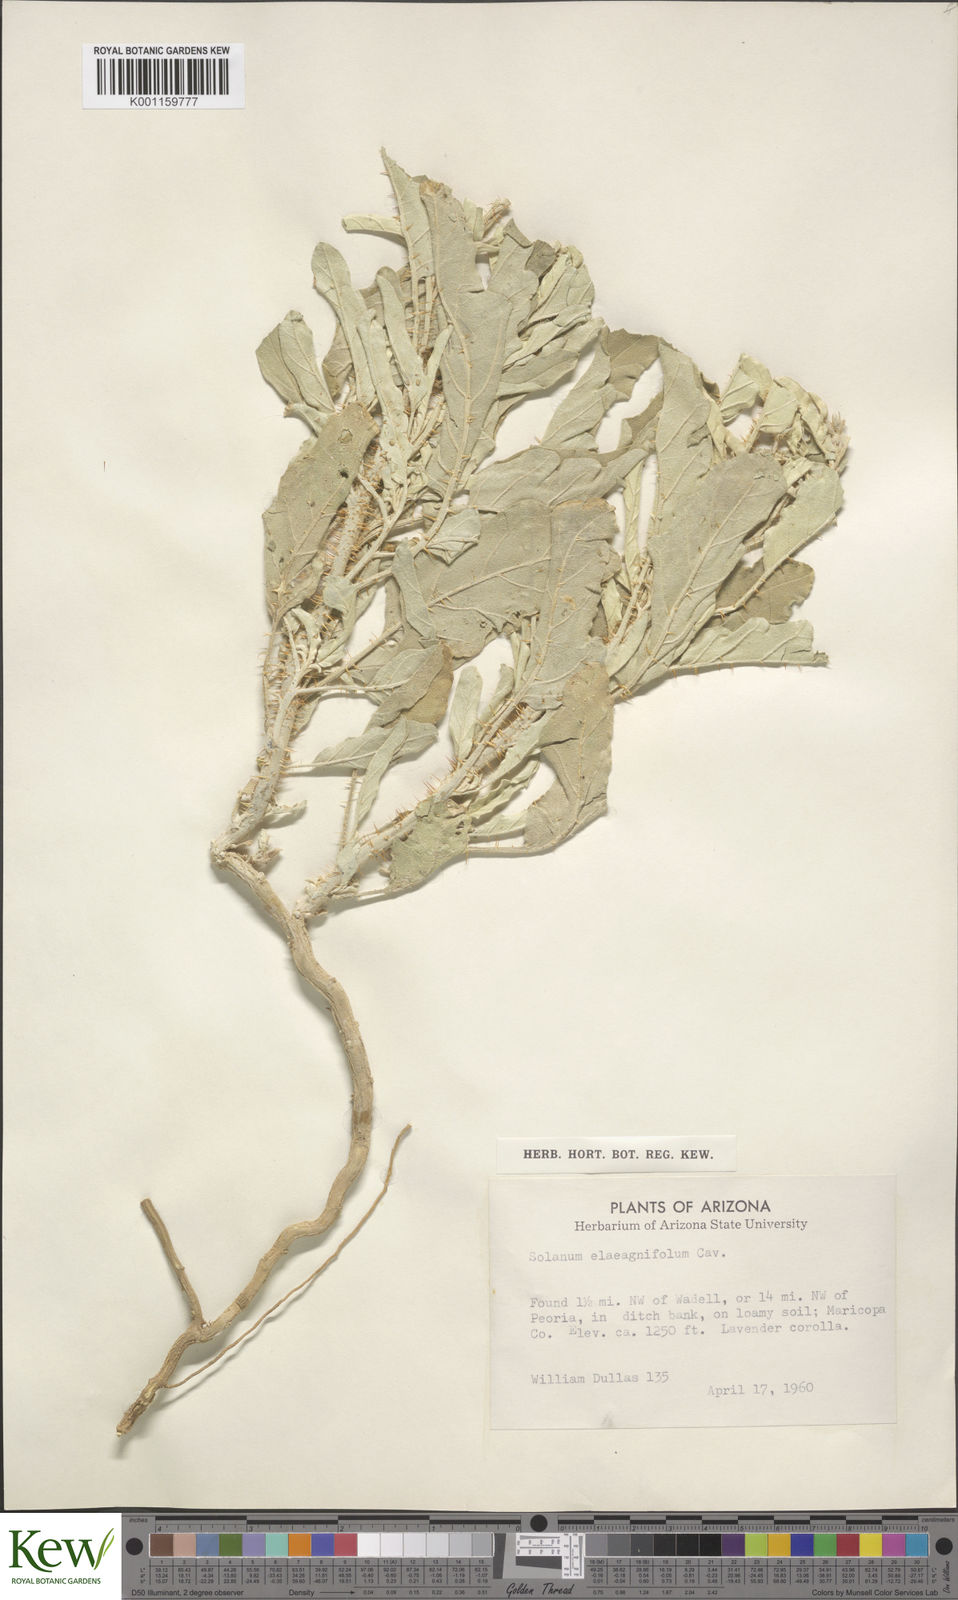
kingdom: Plantae
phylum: Tracheophyta
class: Magnoliopsida
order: Solanales
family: Solanaceae
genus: Solanum
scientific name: Solanum
